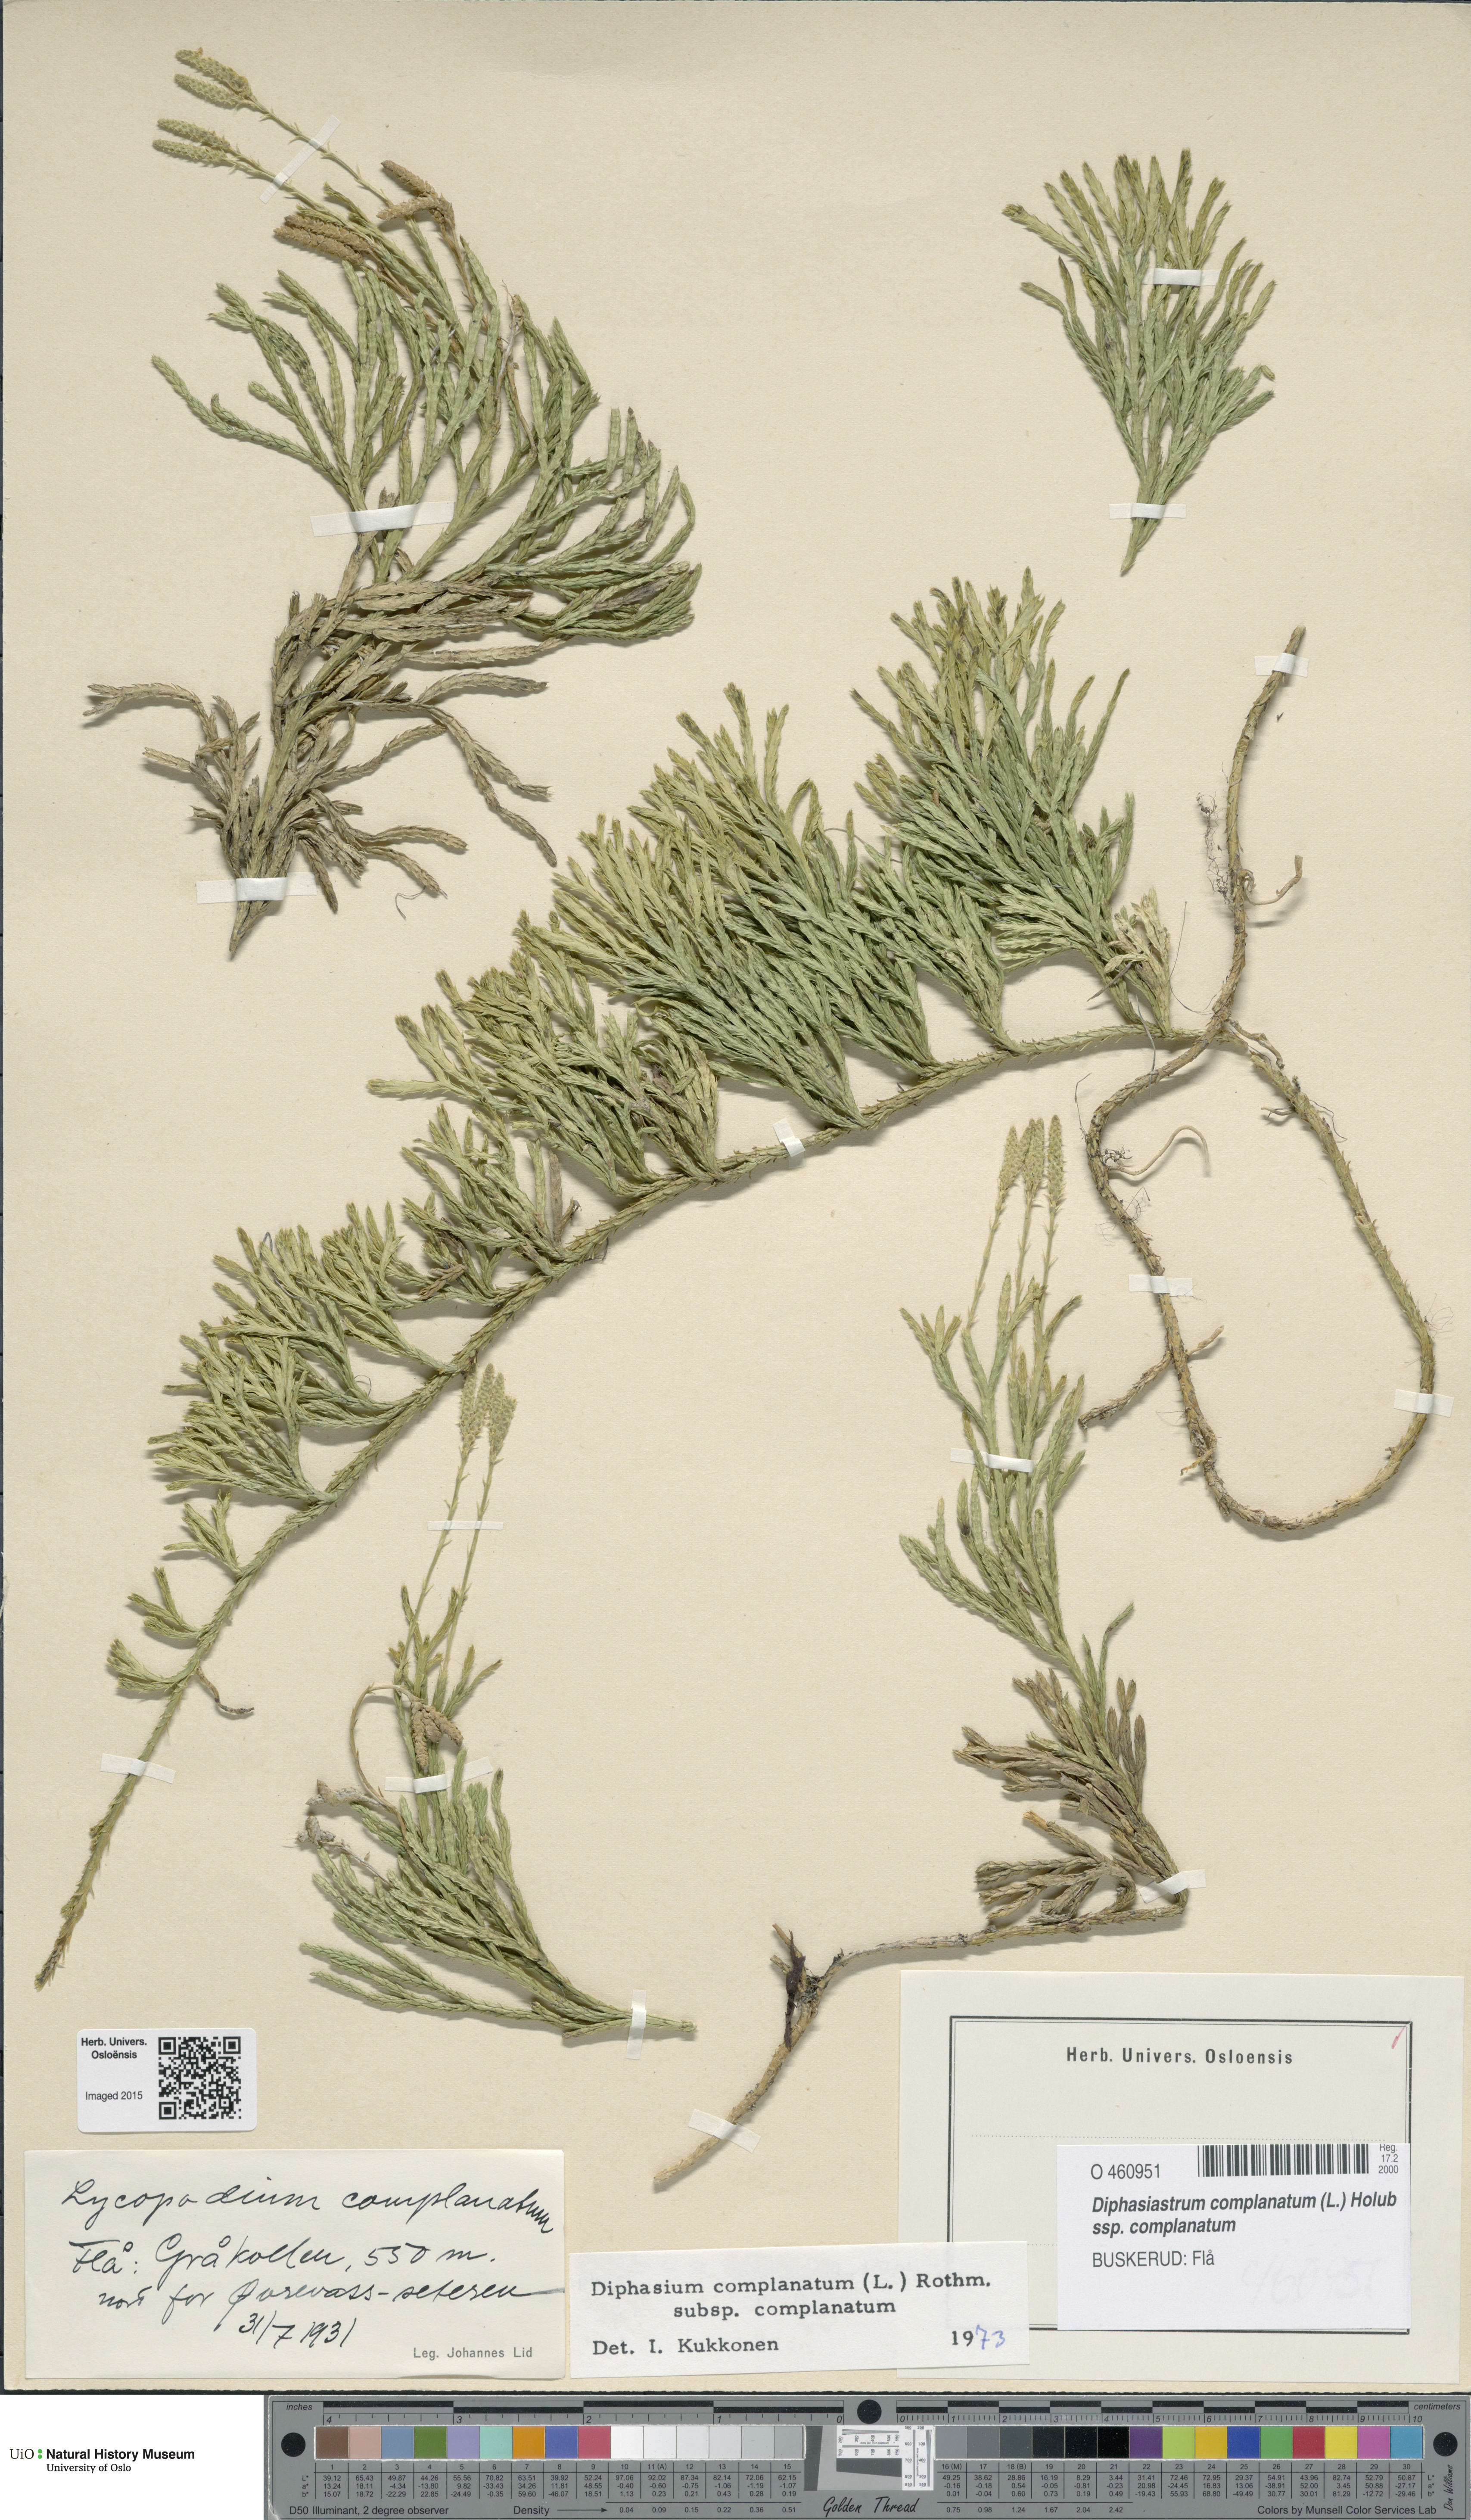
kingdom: Plantae
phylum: Tracheophyta
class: Lycopodiopsida
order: Lycopodiales
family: Lycopodiaceae
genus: Diphasiastrum
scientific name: Diphasiastrum complanatum
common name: Northern running-pine
